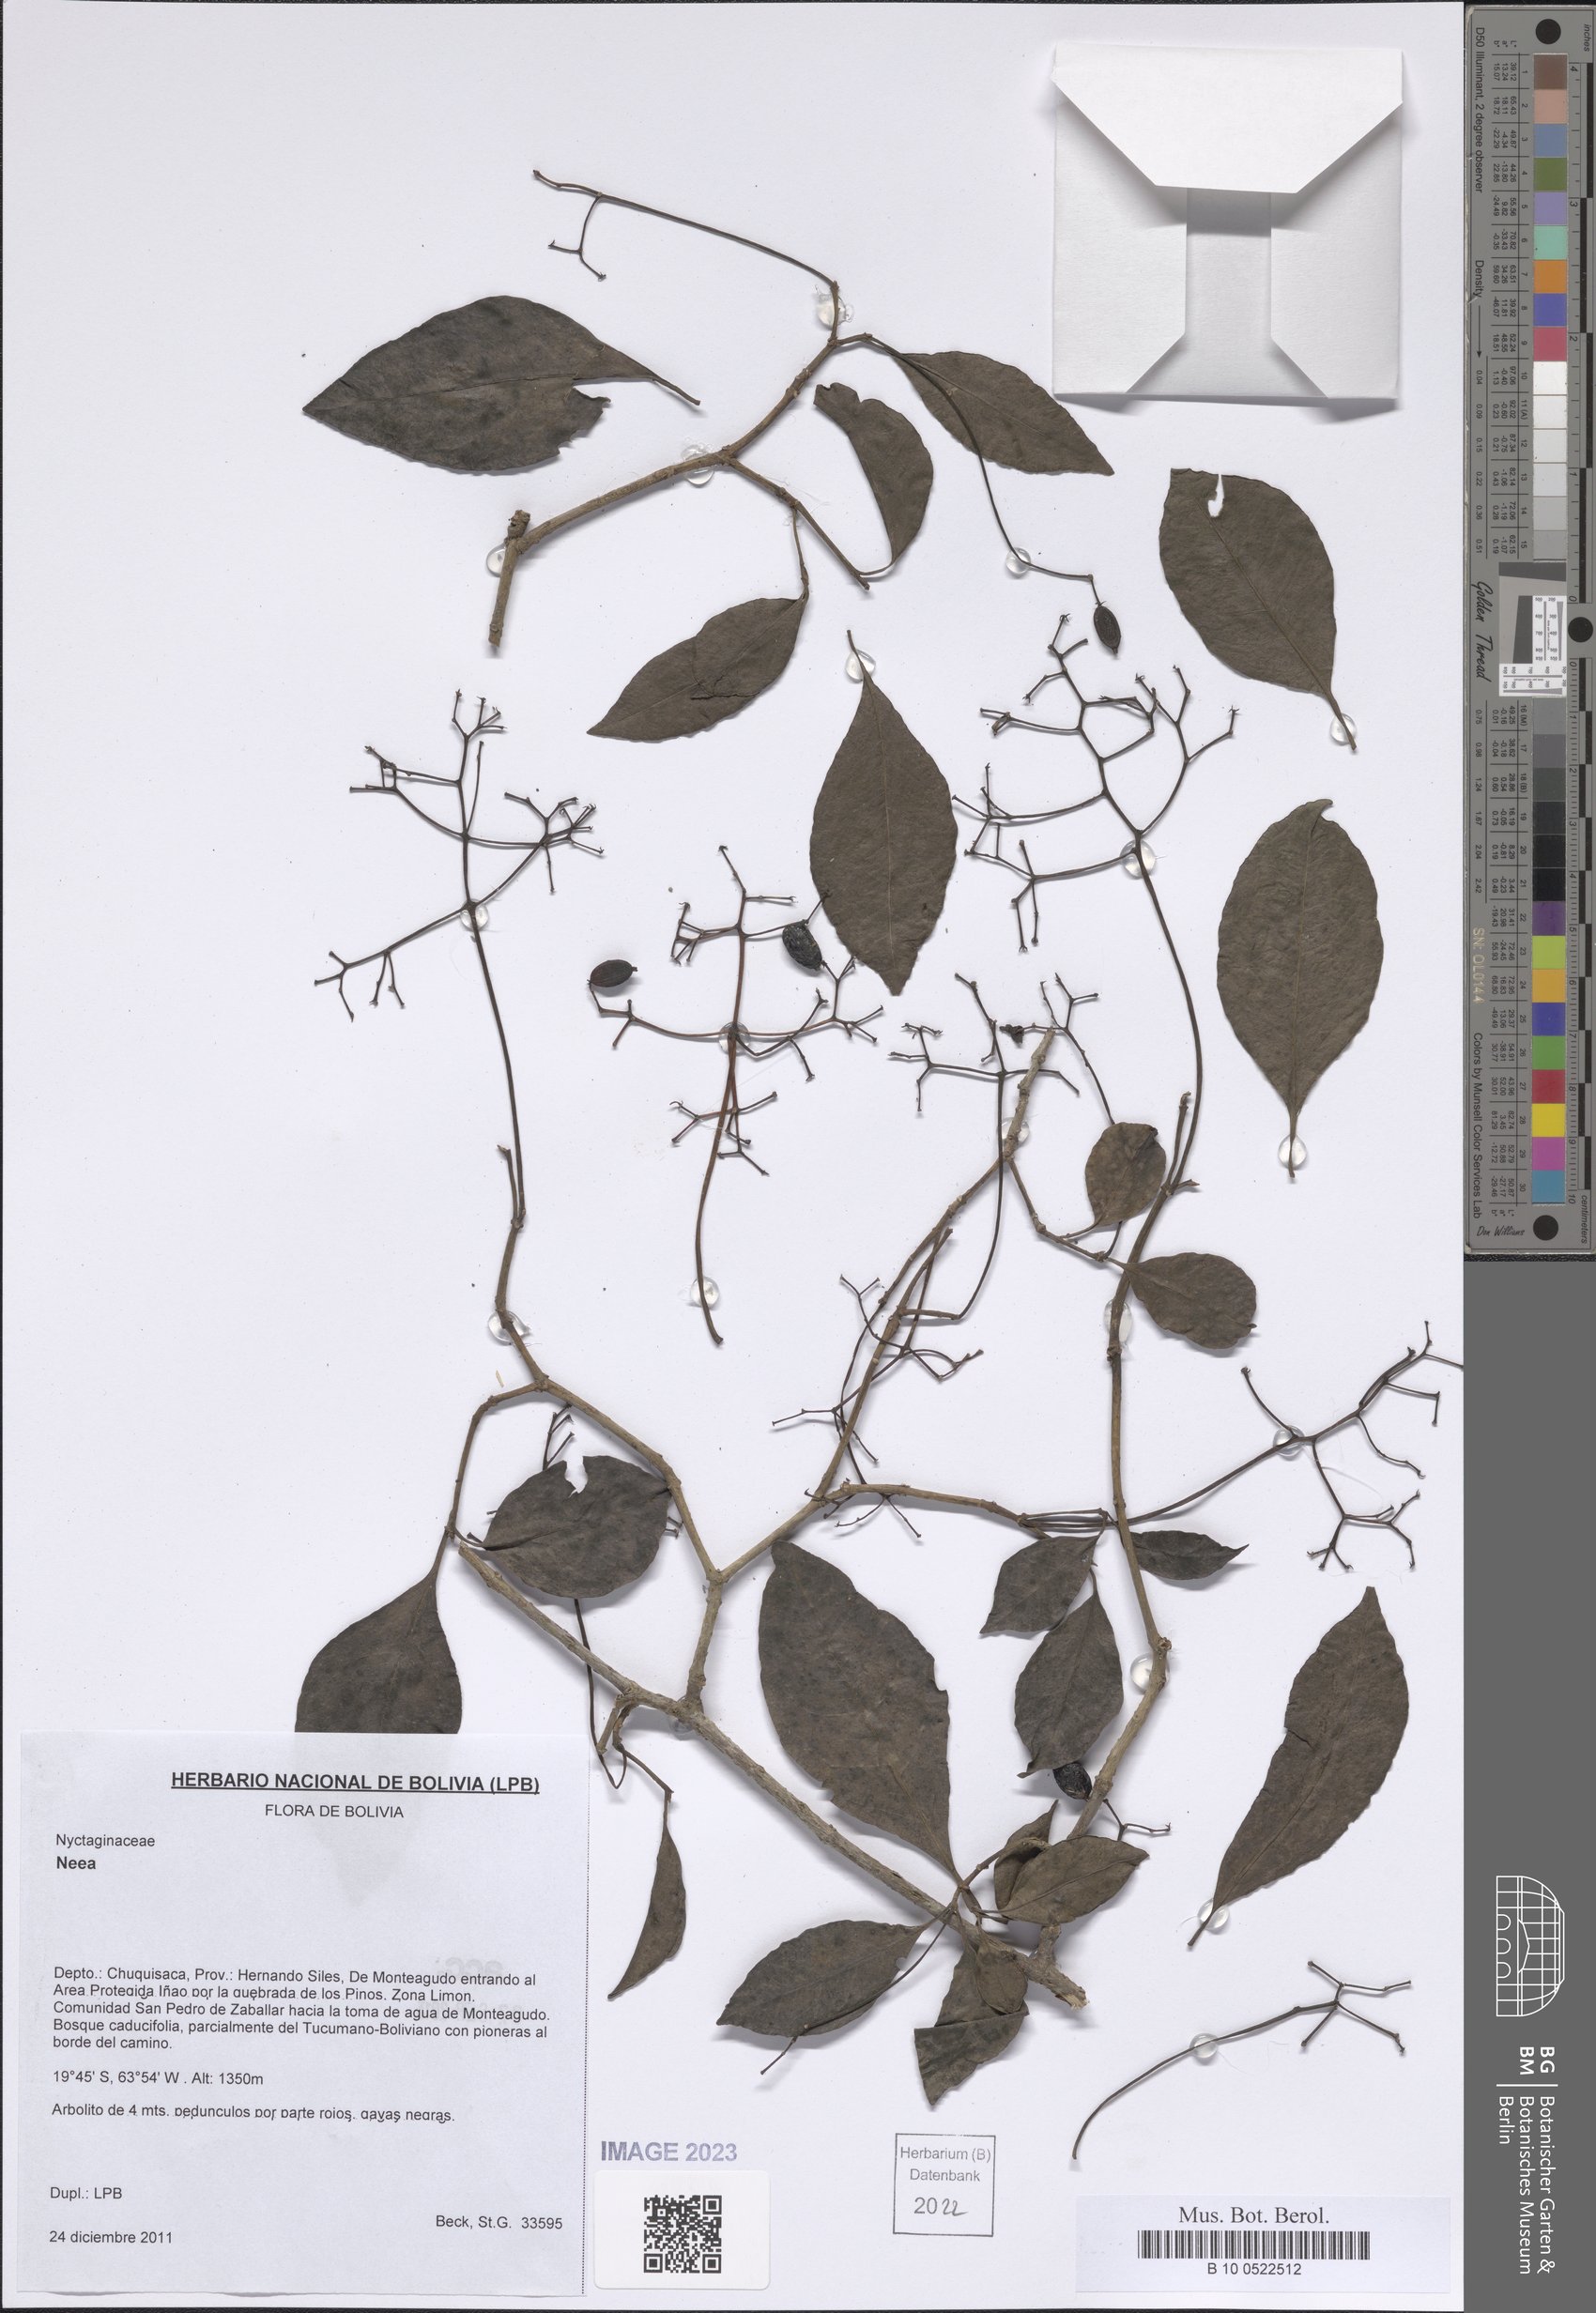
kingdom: Plantae
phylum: Tracheophyta
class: Magnoliopsida
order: Caryophyllales
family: Nyctaginaceae
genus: Neea
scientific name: Neea
